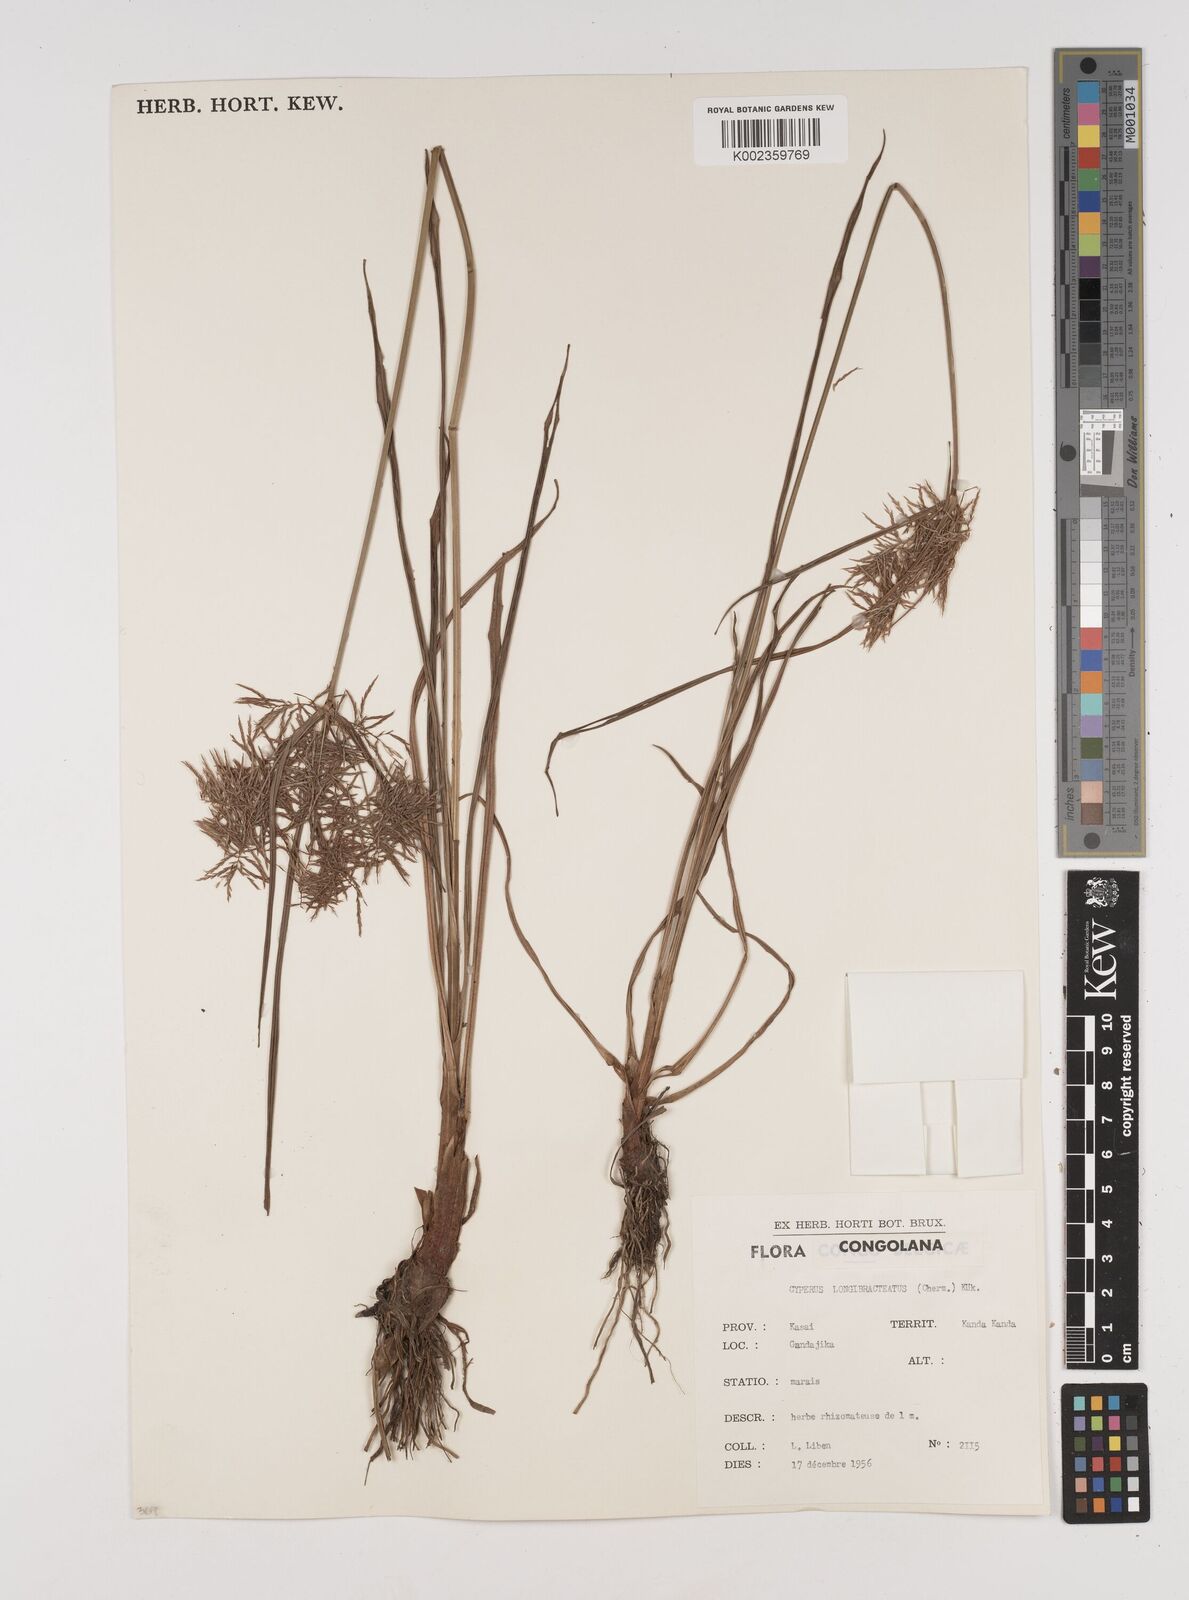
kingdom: Plantae
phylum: Tracheophyta
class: Liliopsida
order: Poales
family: Cyperaceae
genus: Cyperus
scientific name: Cyperus distans
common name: Slender cyperus
